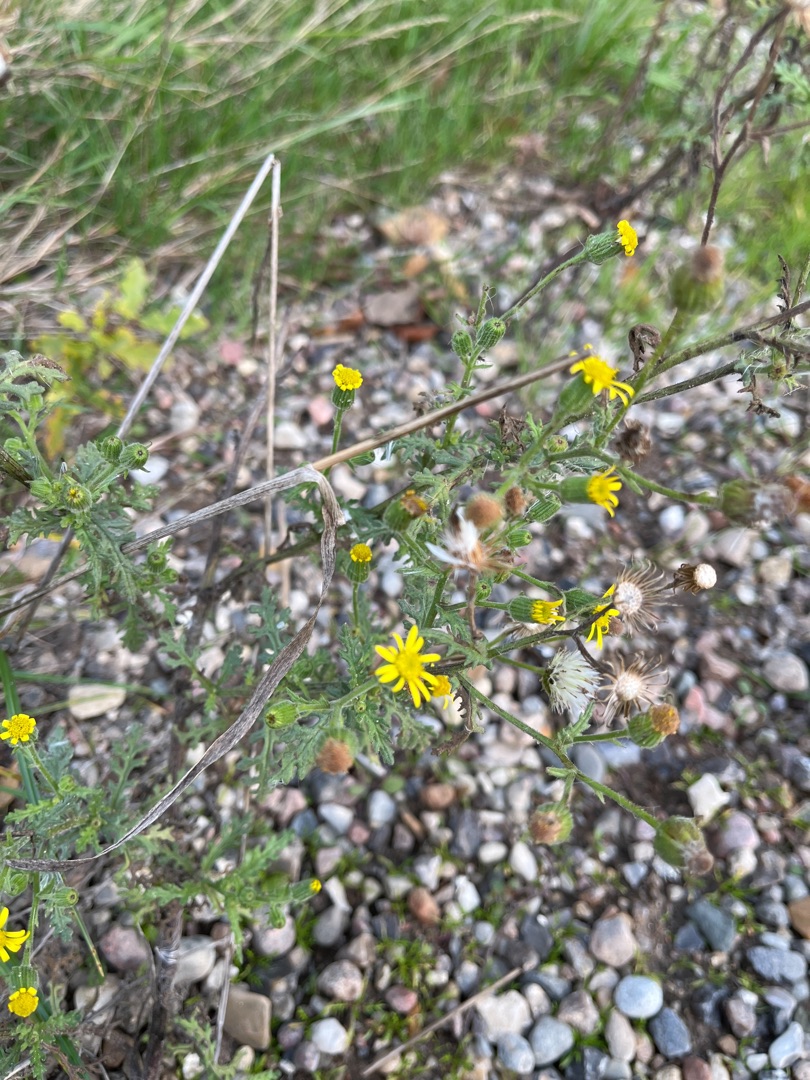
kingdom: Plantae
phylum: Tracheophyta
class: Magnoliopsida
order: Asterales
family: Asteraceae
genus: Senecio
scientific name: Senecio viscosus
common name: Klæbrig brandbæger
